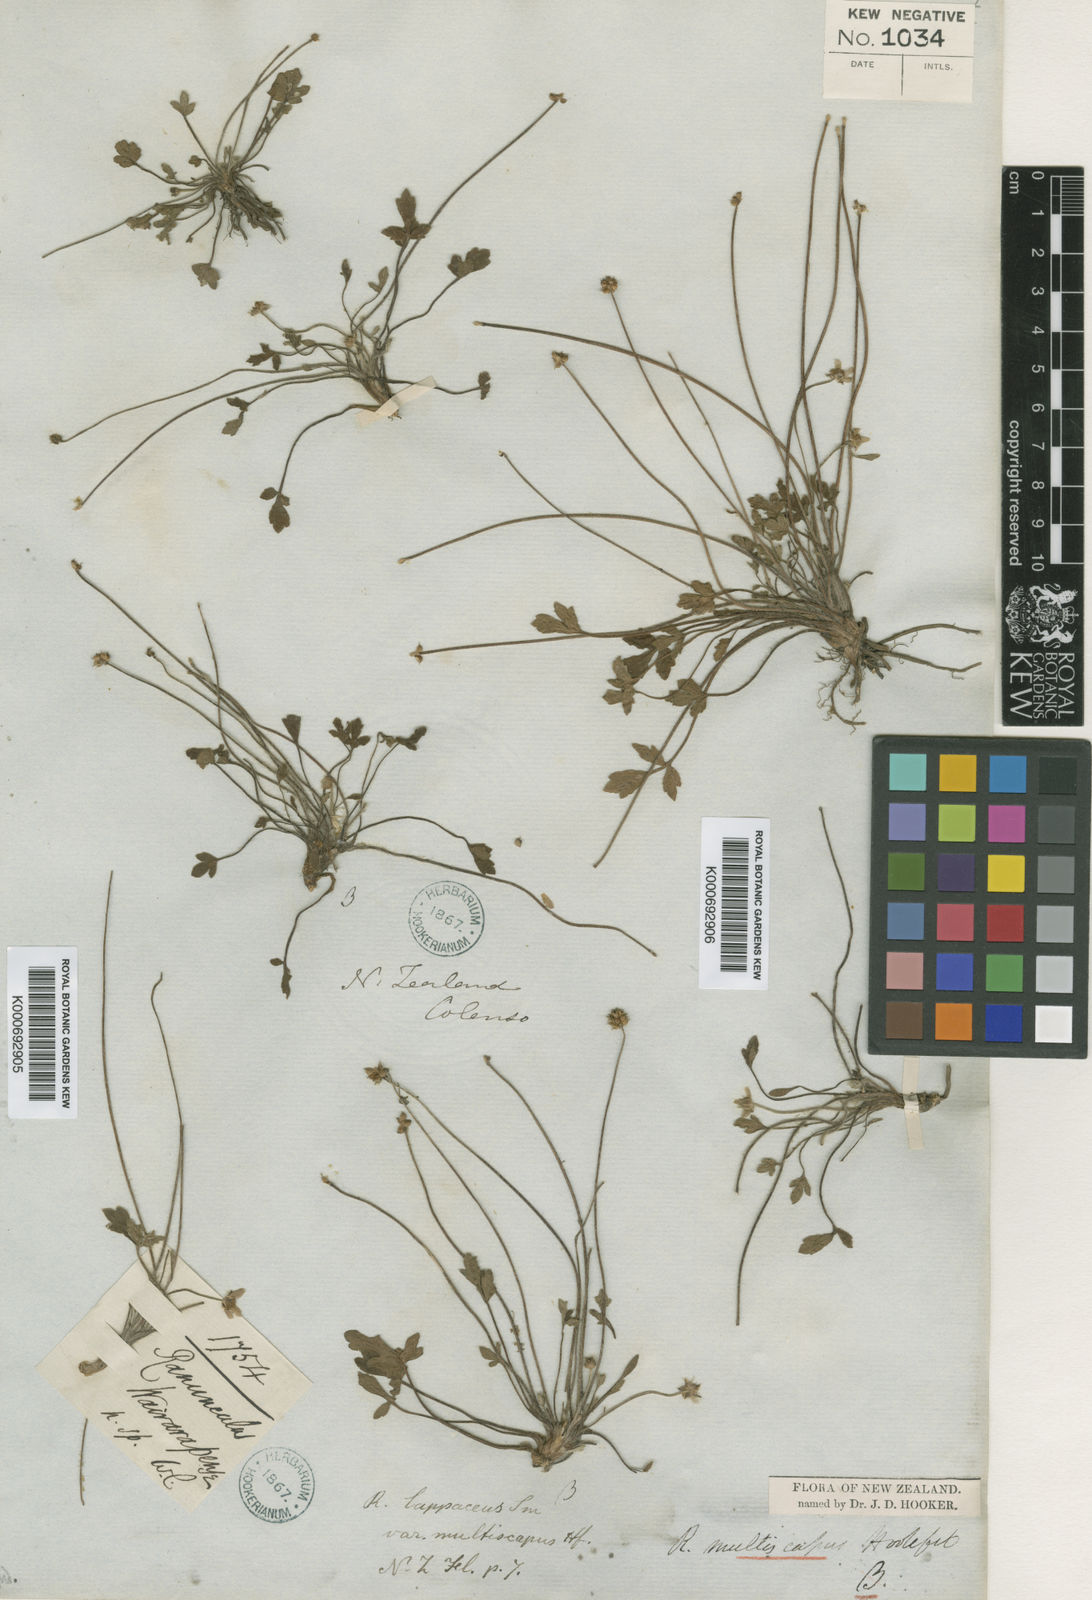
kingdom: Plantae
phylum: Tracheophyta
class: Magnoliopsida
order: Ranunculales
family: Ranunculaceae
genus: Ranunculus
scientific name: Ranunculus lappaceus
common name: Australian buttercup
